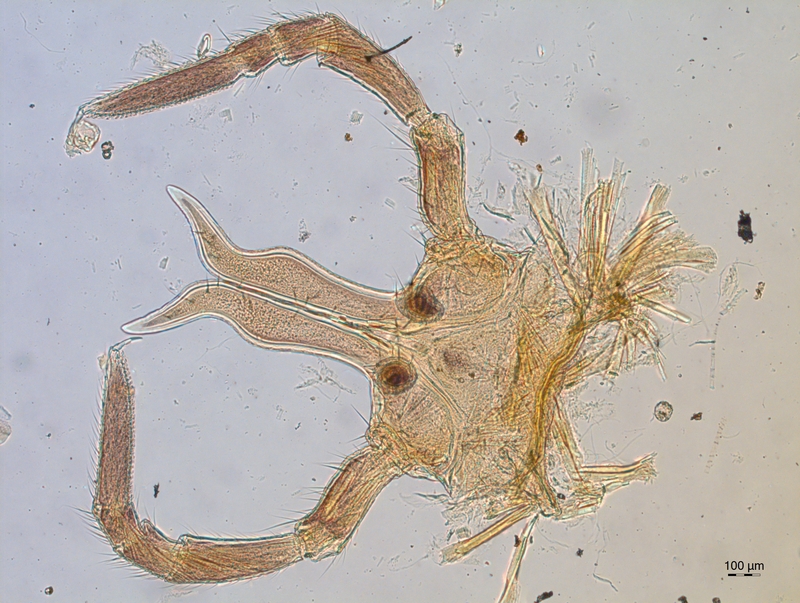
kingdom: Animalia
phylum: Arthropoda
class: Diplopoda
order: Chordeumatida
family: Attemsiidae
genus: Attemsia
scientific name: Attemsia stygia
